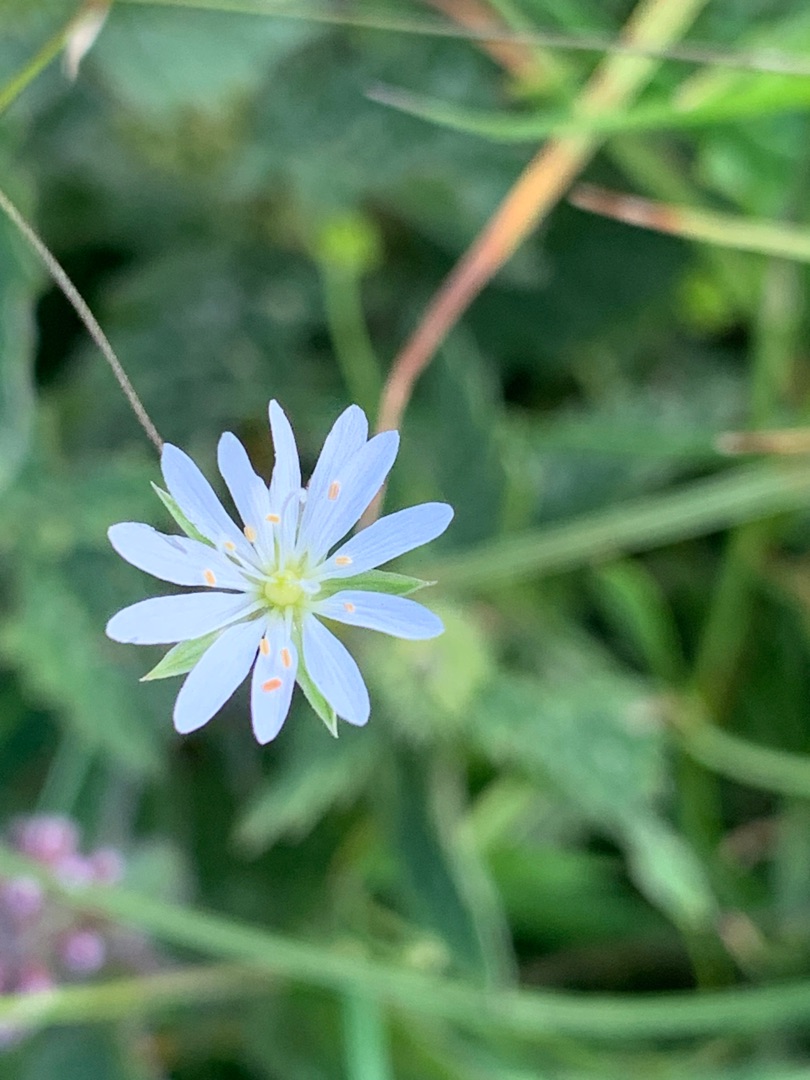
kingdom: Plantae
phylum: Tracheophyta
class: Magnoliopsida
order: Caryophyllales
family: Caryophyllaceae
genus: Stellaria
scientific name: Stellaria graminea
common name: Græsbladet fladstjerne
